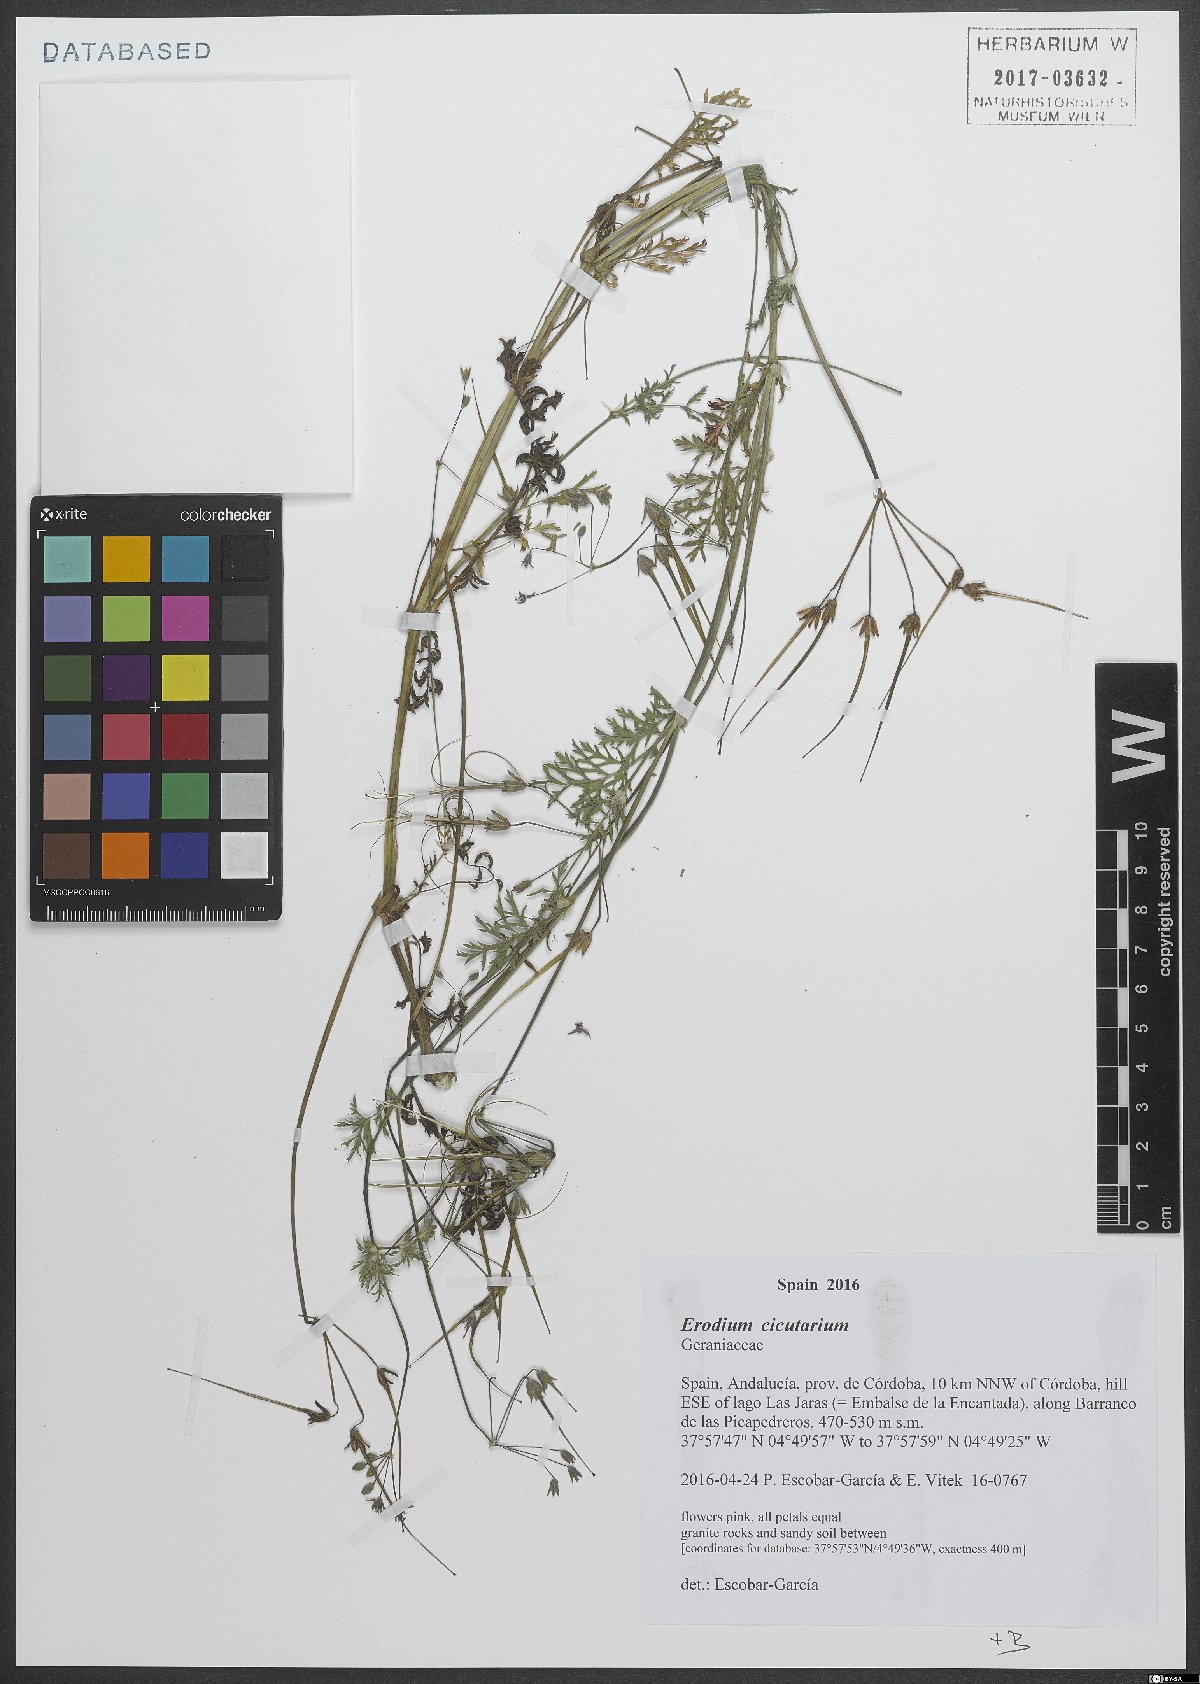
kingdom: Plantae
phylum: Tracheophyta
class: Magnoliopsida
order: Geraniales
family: Geraniaceae
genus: Erodium
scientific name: Erodium cicutarium
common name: Common stork's-bill
